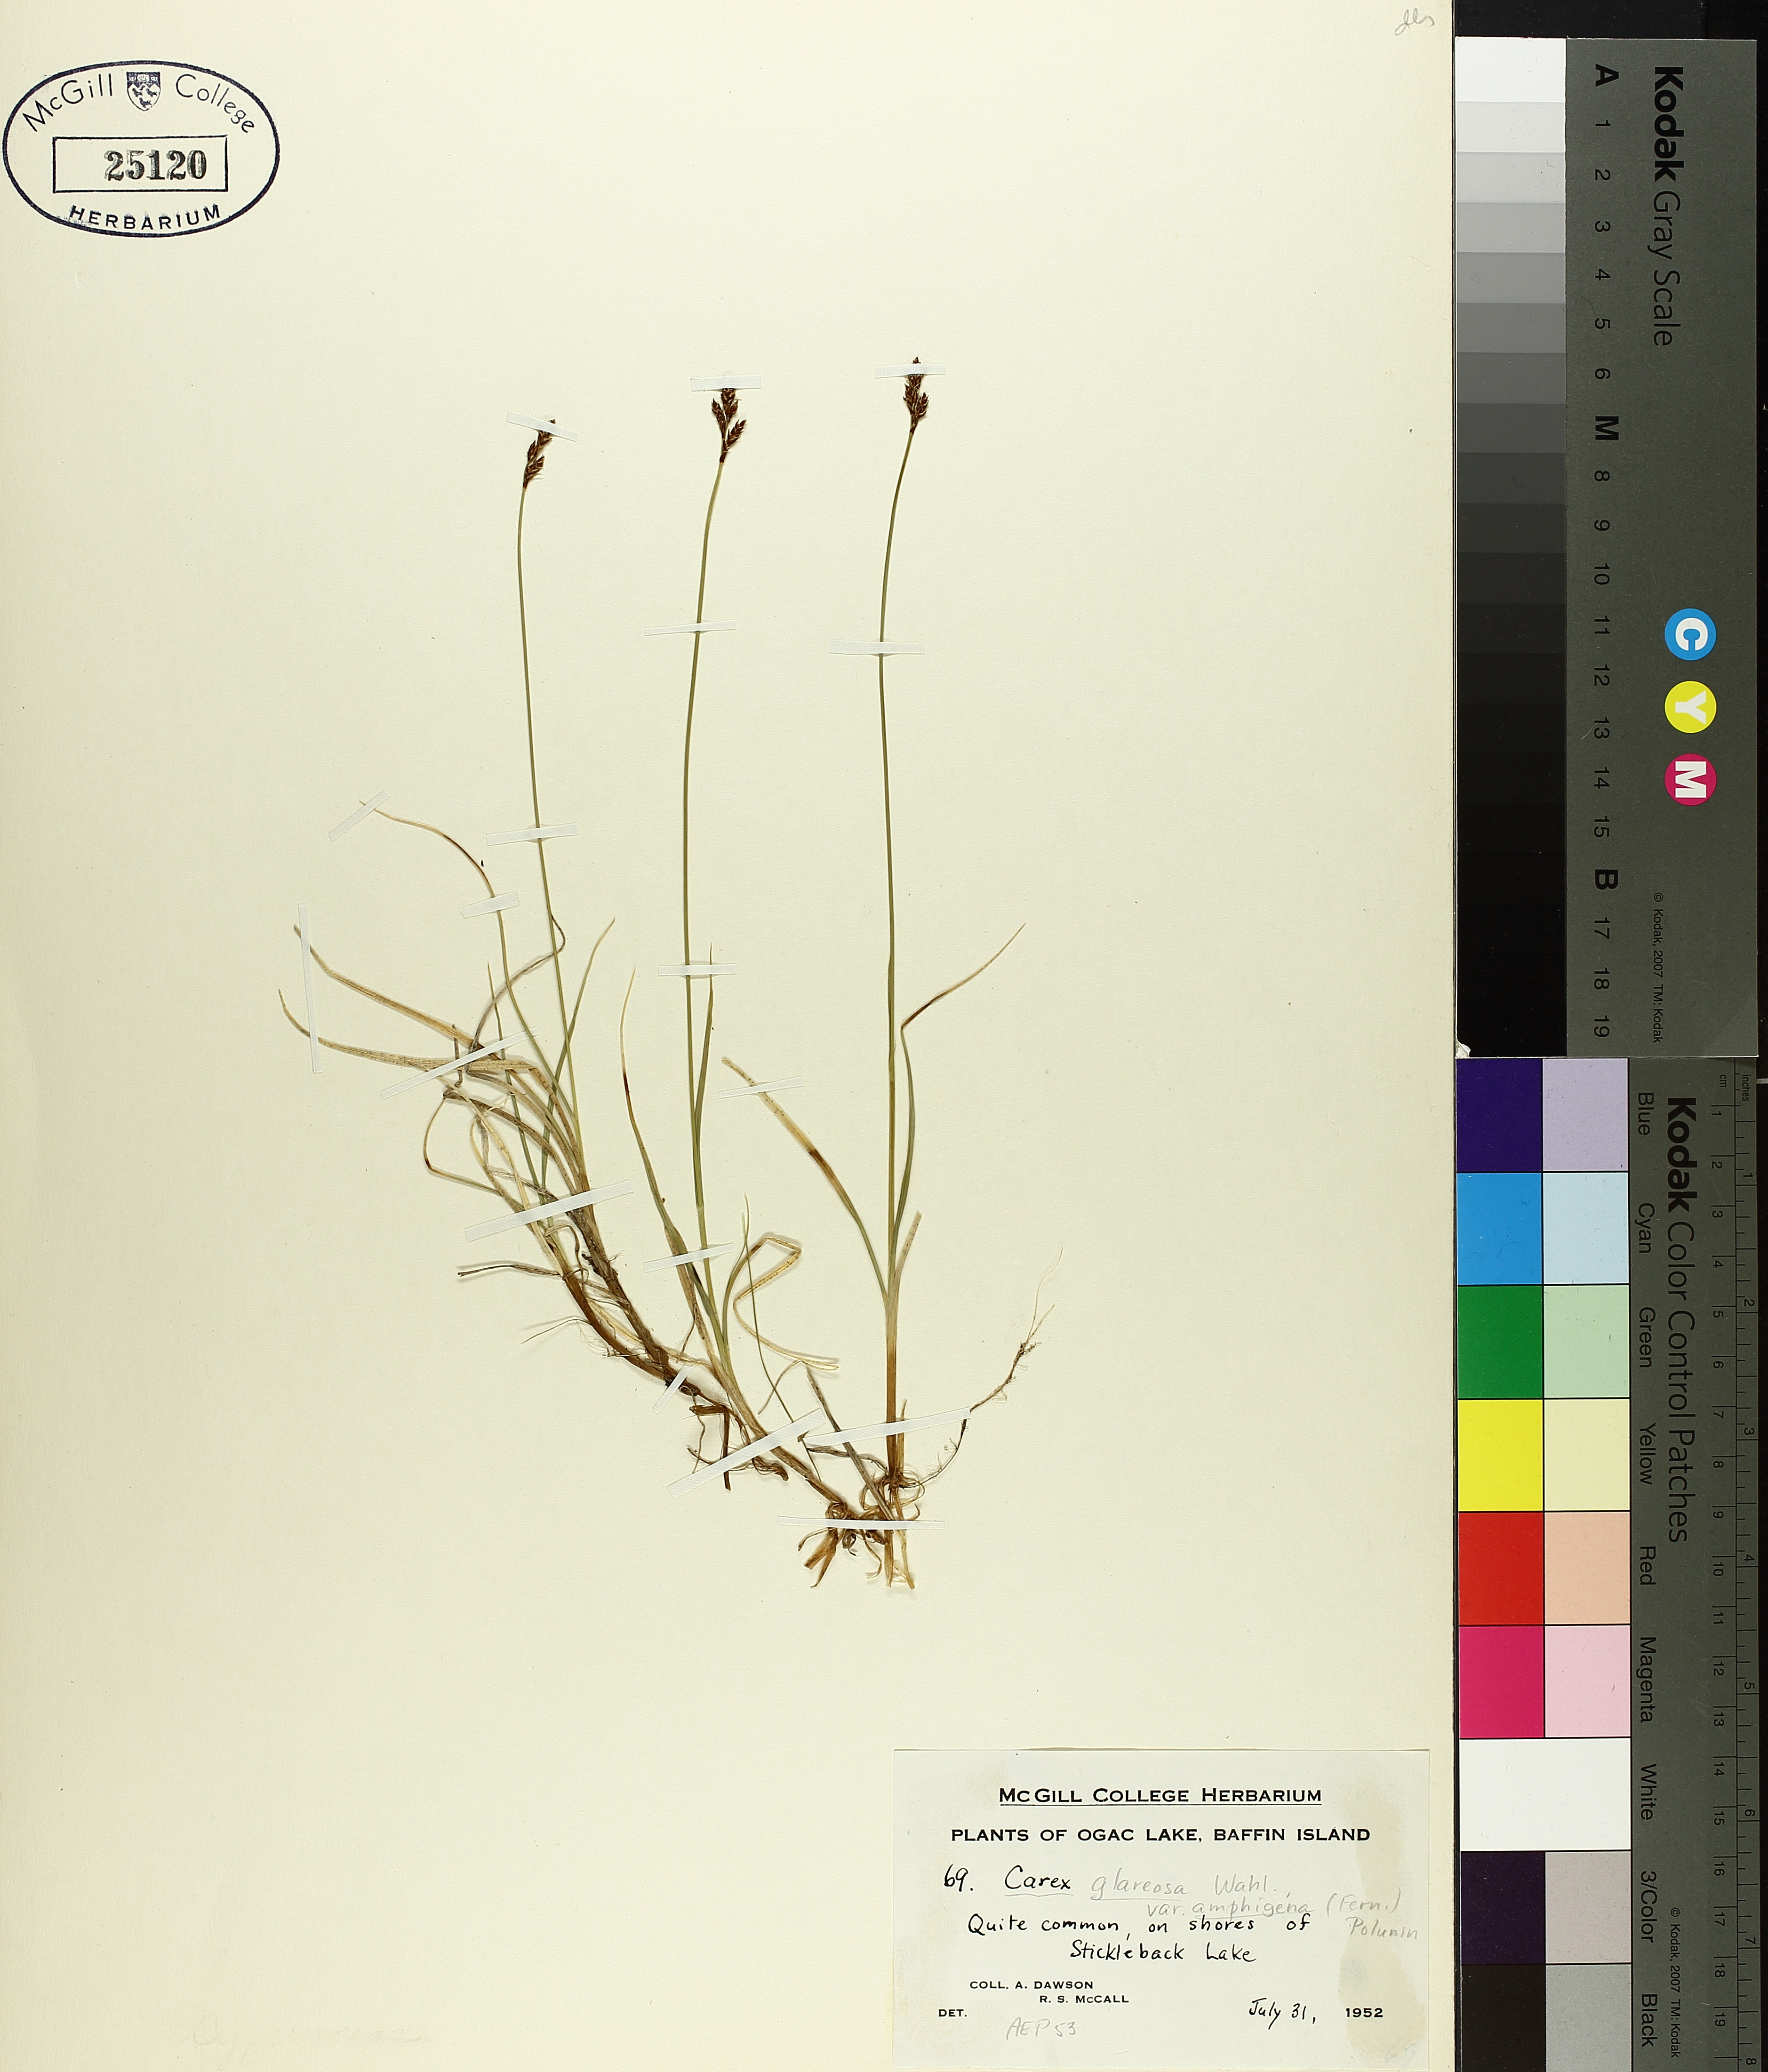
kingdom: Plantae
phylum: Tracheophyta
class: Liliopsida
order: Poales
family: Cyperaceae
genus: Carex
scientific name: Carex glareosa
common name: Clustered sedge
